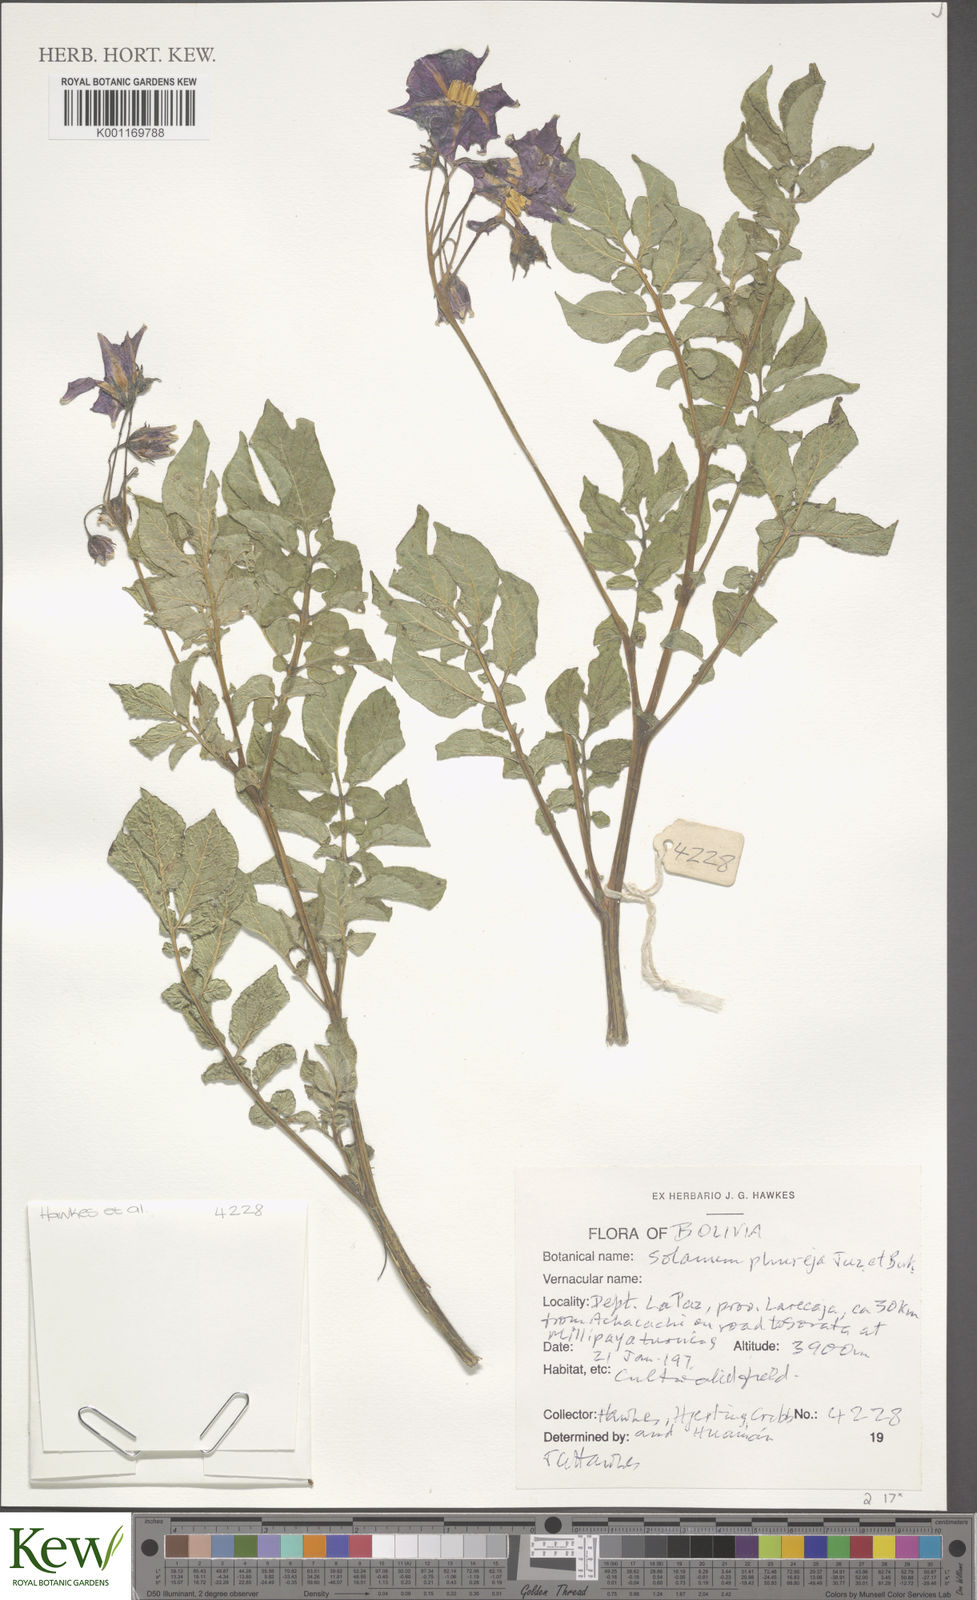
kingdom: Plantae
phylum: Tracheophyta
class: Magnoliopsida
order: Solanales
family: Solanaceae
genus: Solanum
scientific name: Solanum tuberosum
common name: Potato
